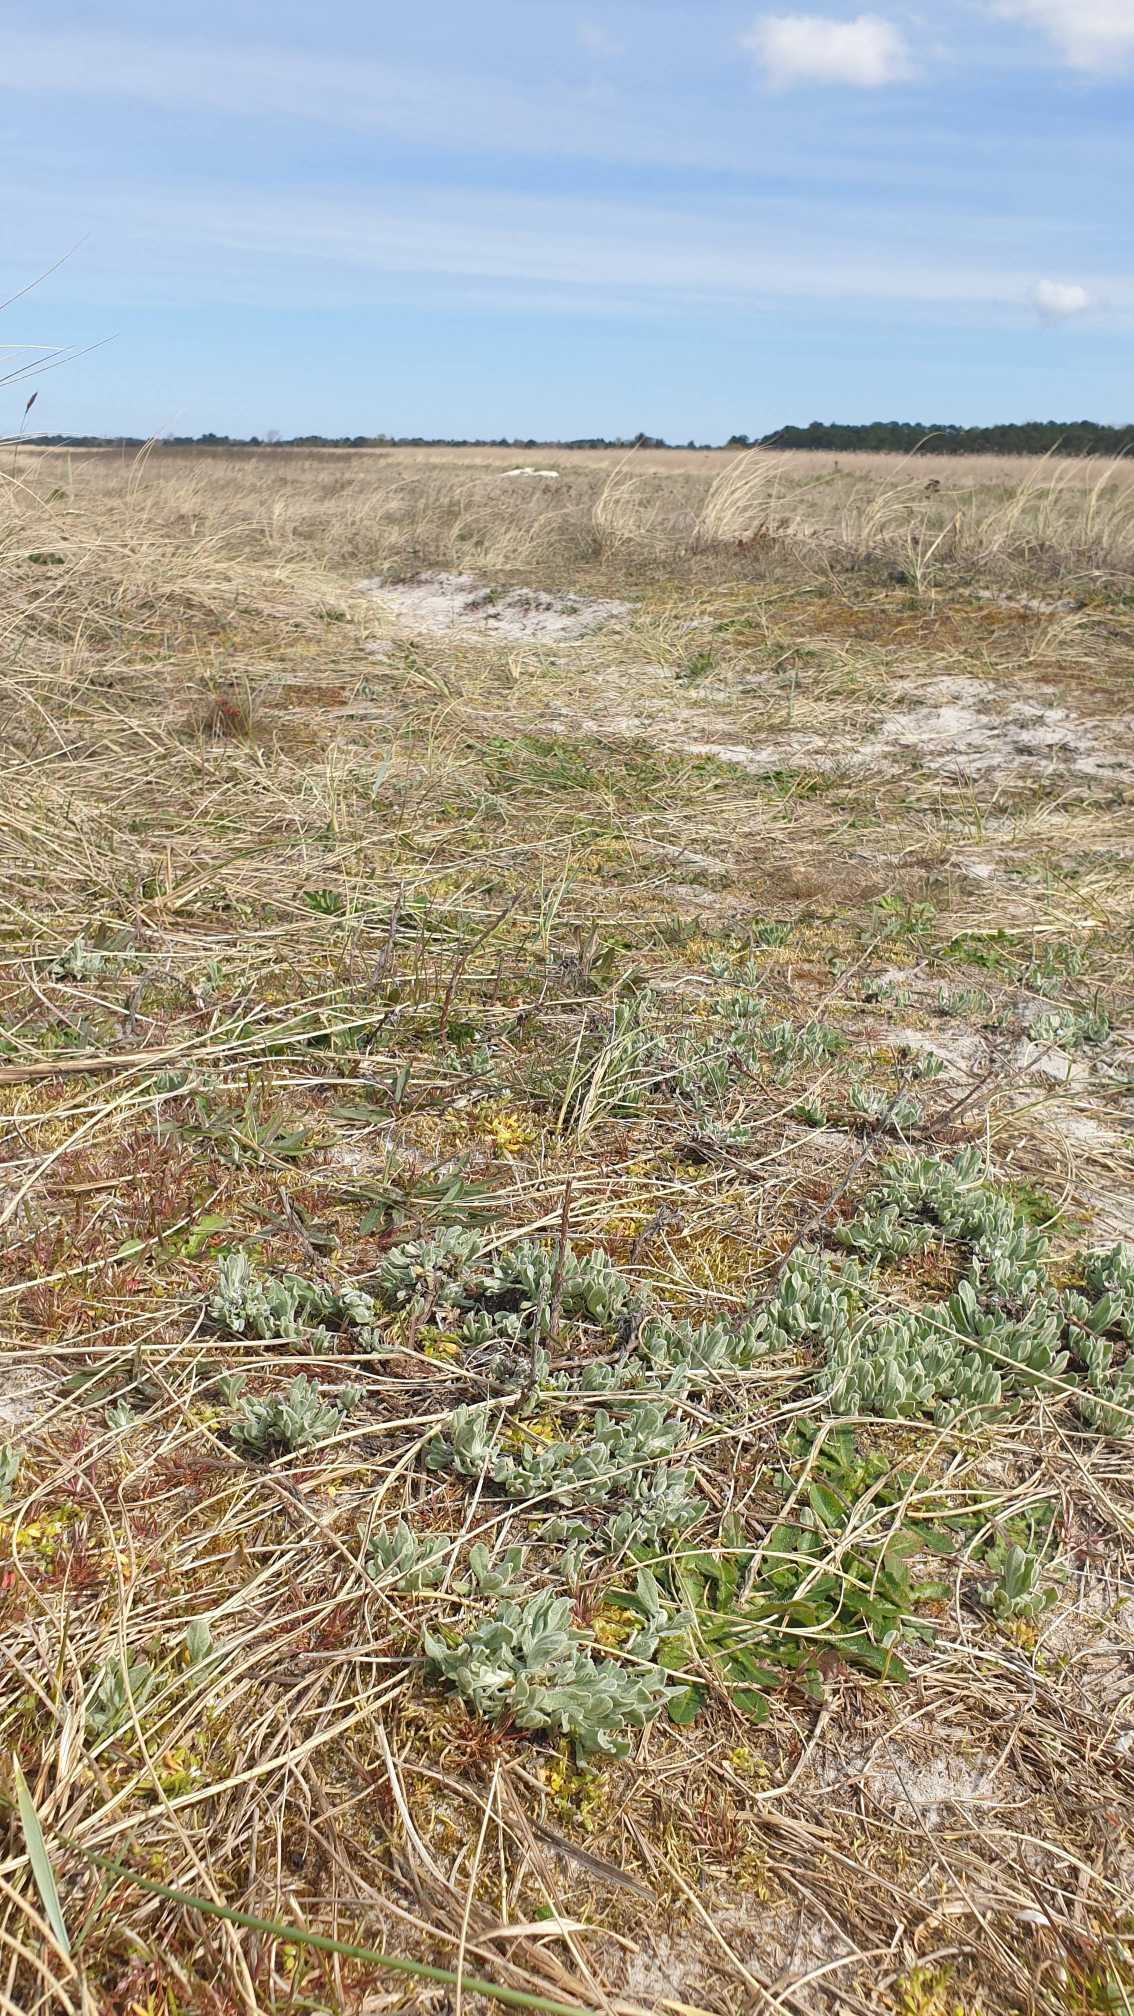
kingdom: Plantae
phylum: Tracheophyta
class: Magnoliopsida
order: Asterales
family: Asteraceae
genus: Helichrysum
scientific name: Helichrysum arenarium
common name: Gul evighedsblomst
